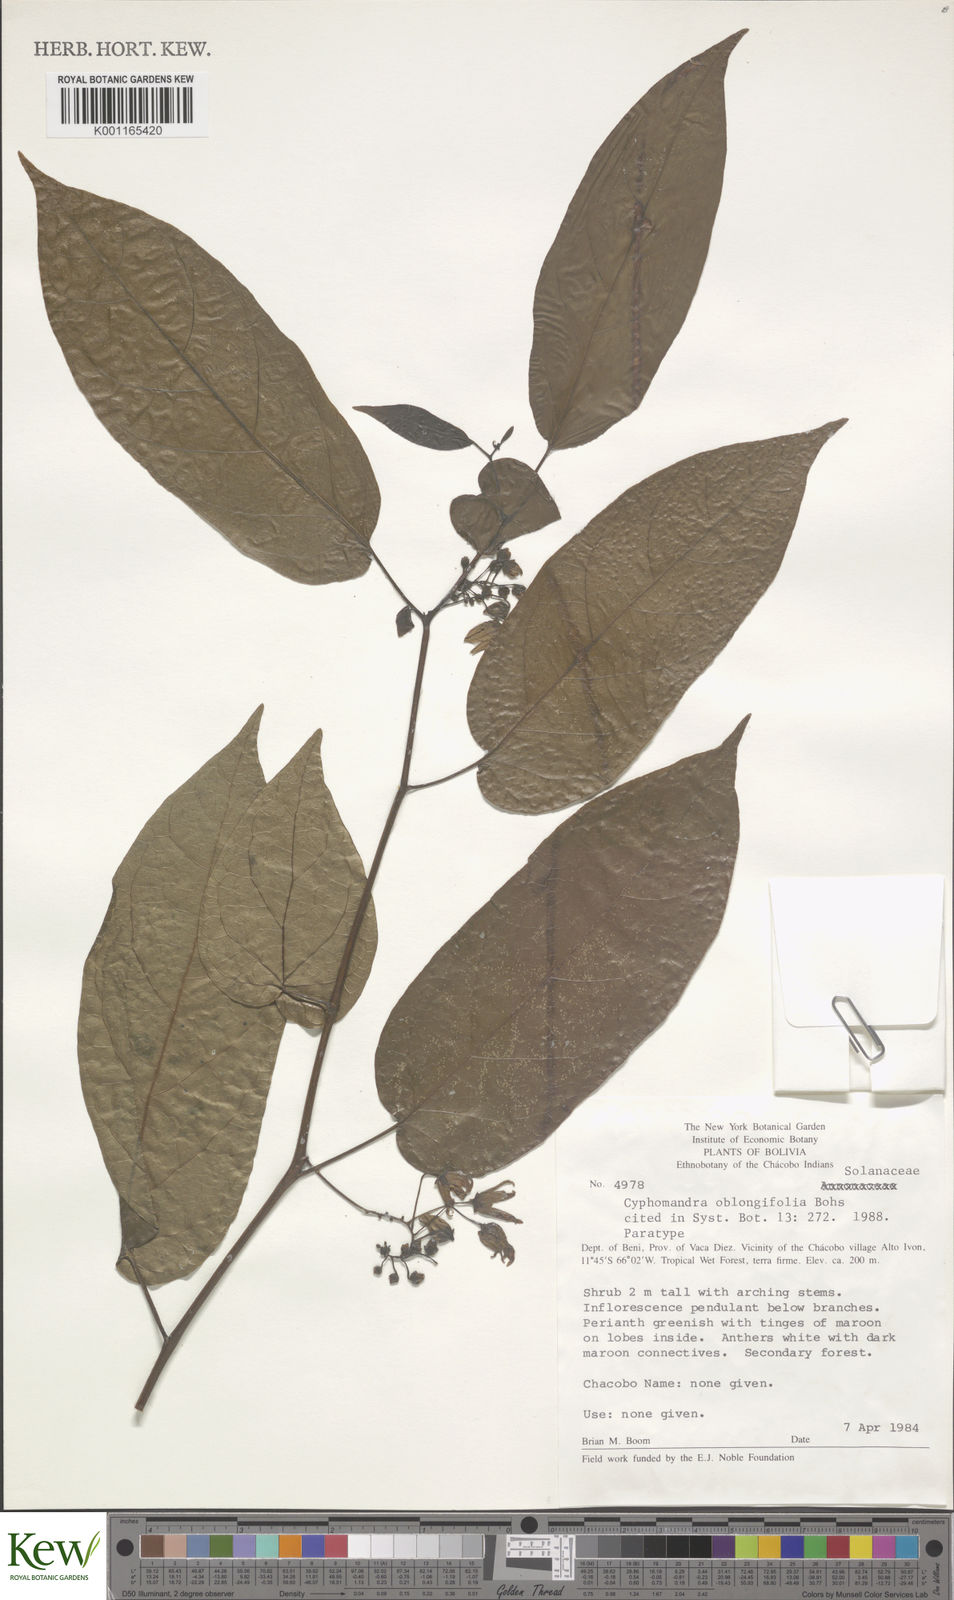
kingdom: Plantae
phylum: Tracheophyta
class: Magnoliopsida
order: Solanales
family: Solanaceae
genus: Solanum
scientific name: Solanum proteanthum
